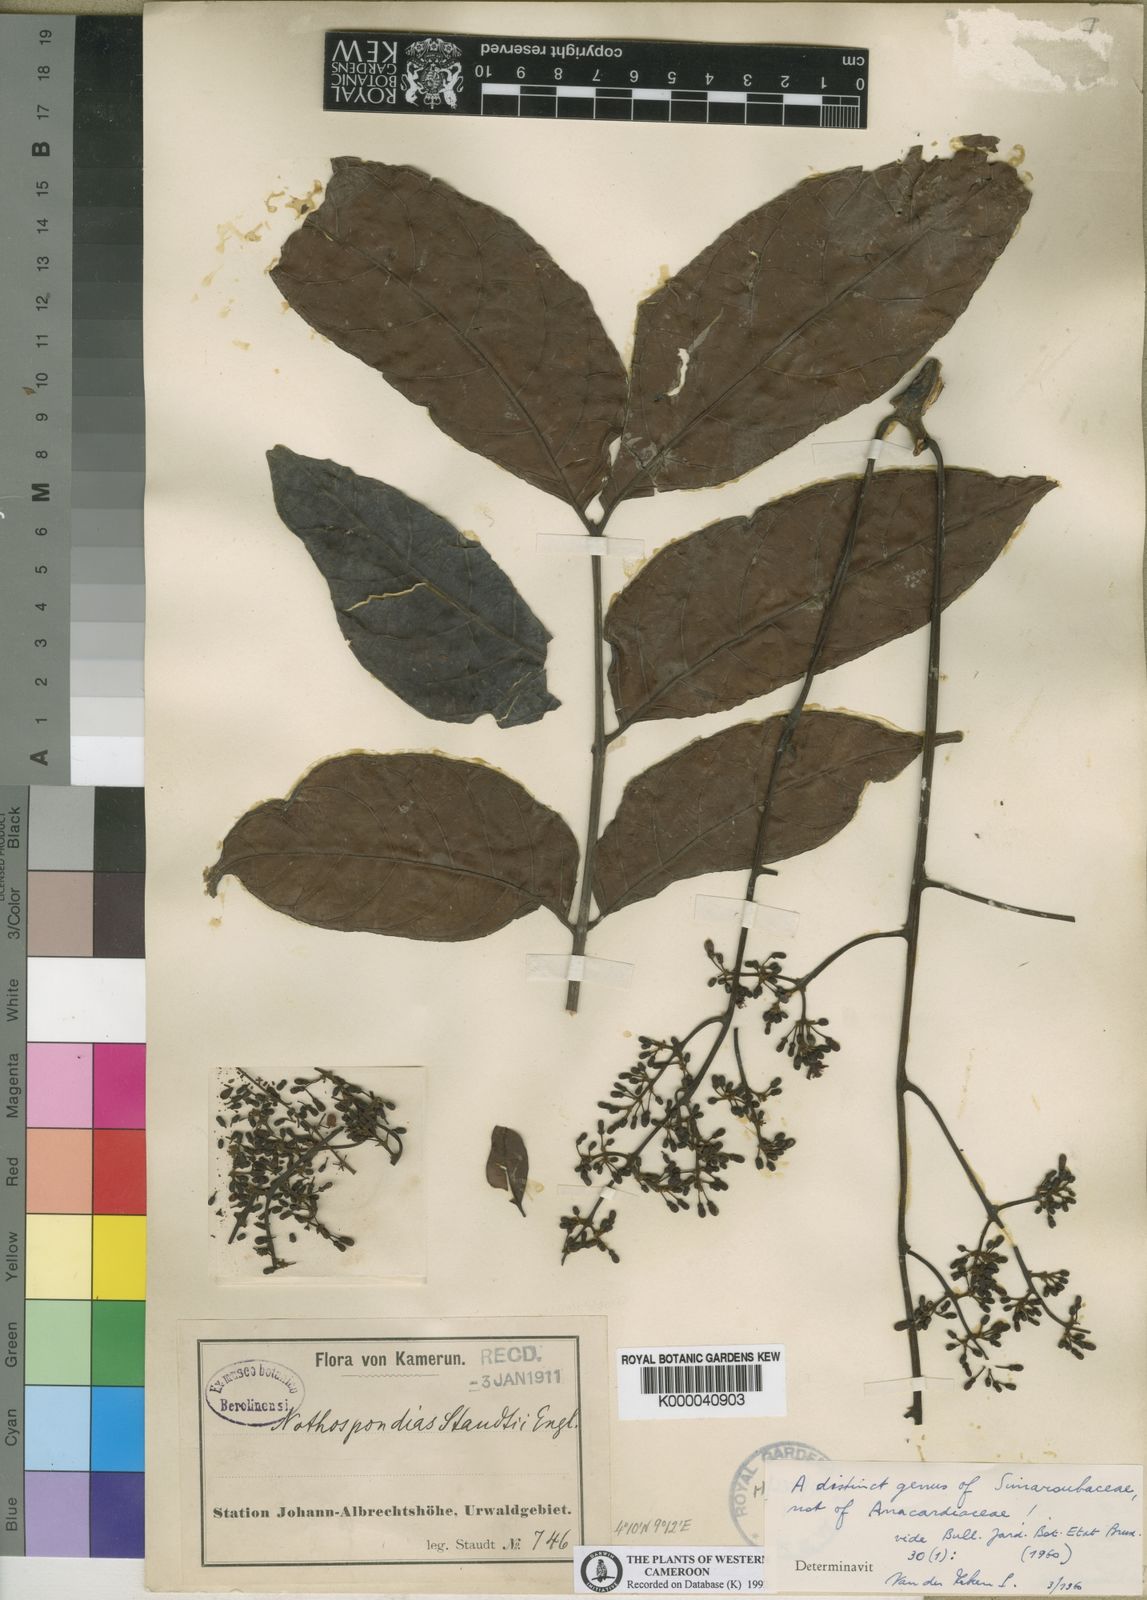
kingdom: Plantae
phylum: Tracheophyta
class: Magnoliopsida
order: Sapindales
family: Simaroubaceae
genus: Nothospondias
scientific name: Nothospondias staudtii
